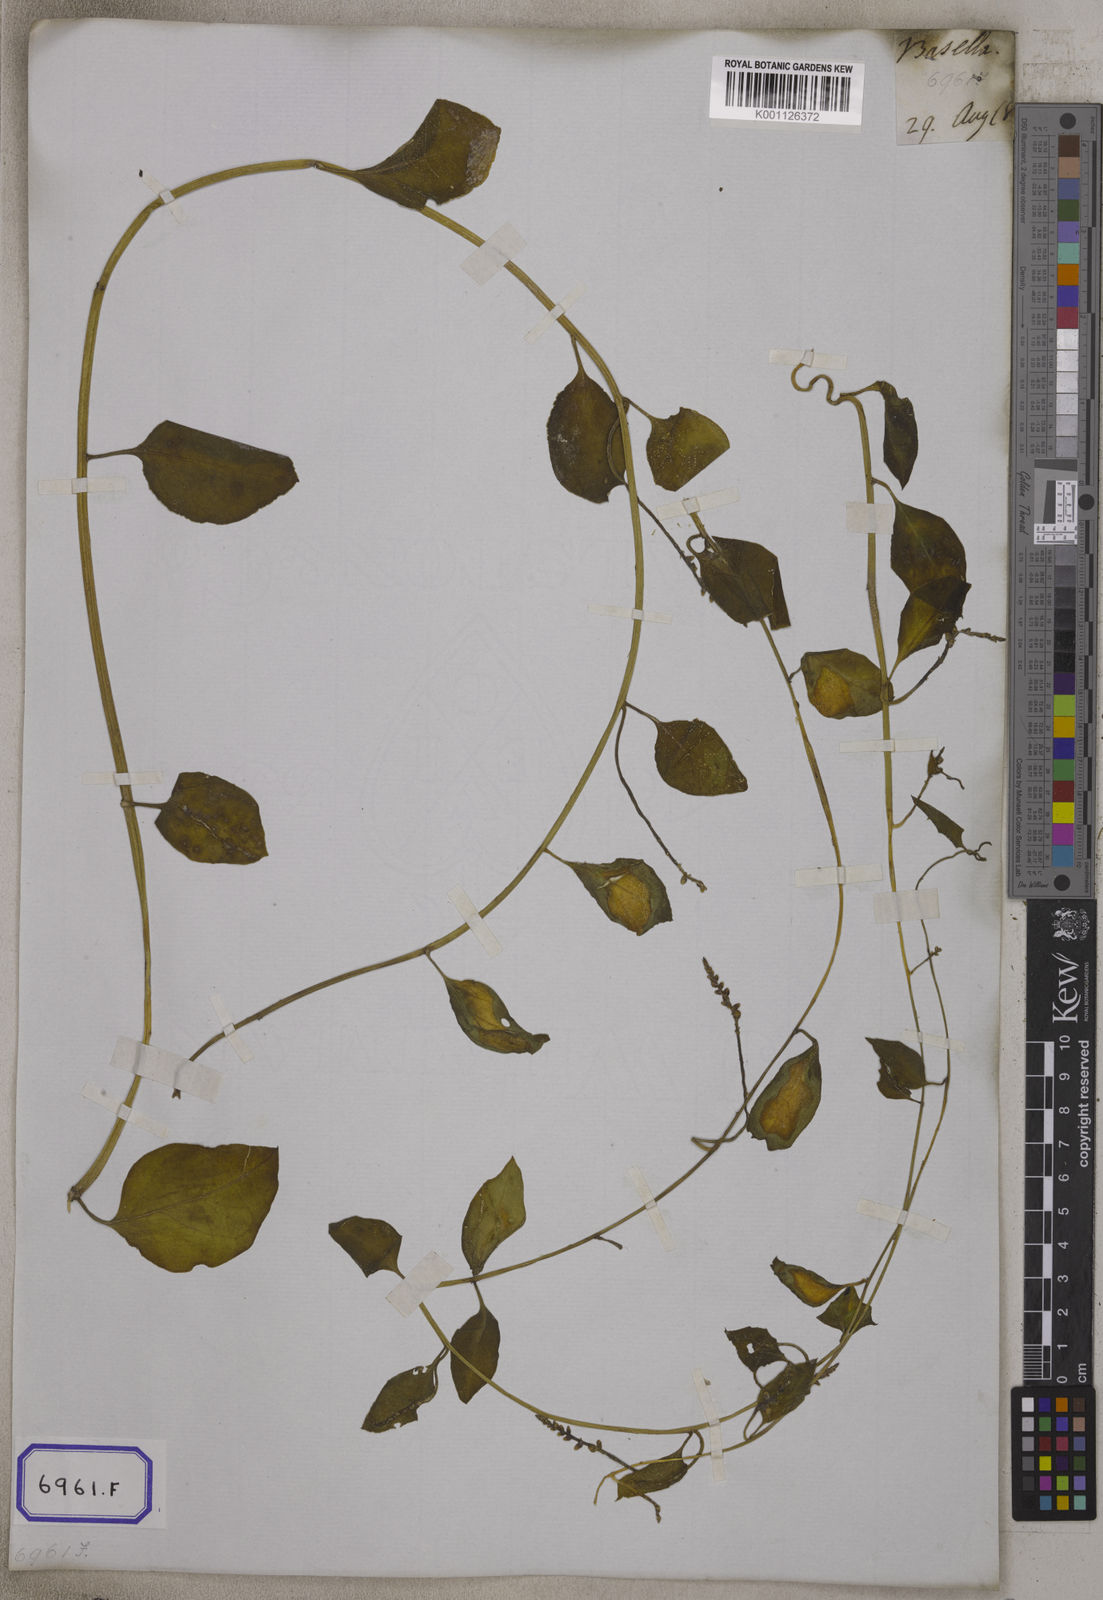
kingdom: Plantae
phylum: Tracheophyta
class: Magnoliopsida
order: Caryophyllales
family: Basellaceae
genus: Basella
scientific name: Basella alba
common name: Indian spinach
